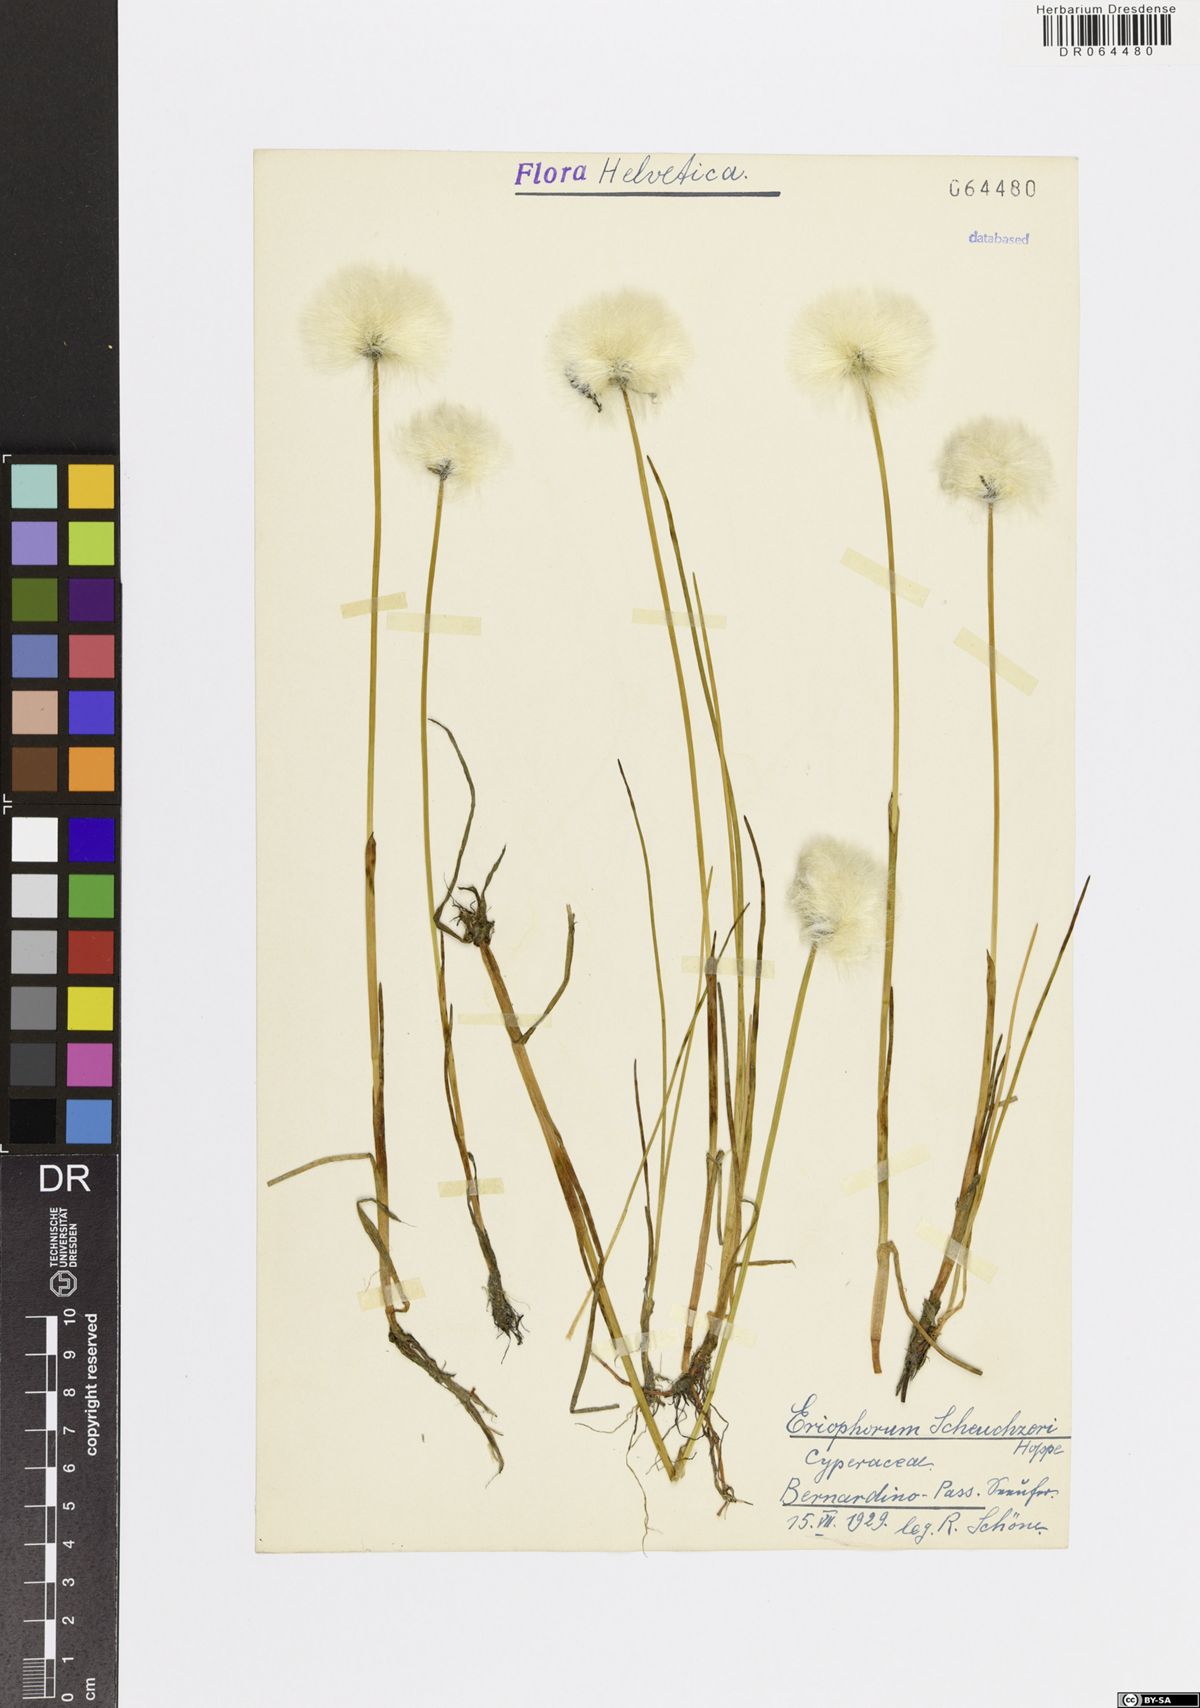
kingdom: Plantae
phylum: Tracheophyta
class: Liliopsida
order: Poales
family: Cyperaceae
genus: Eriophorum
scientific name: Eriophorum scheuchzeri
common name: Scheuchzer's cottongrass
